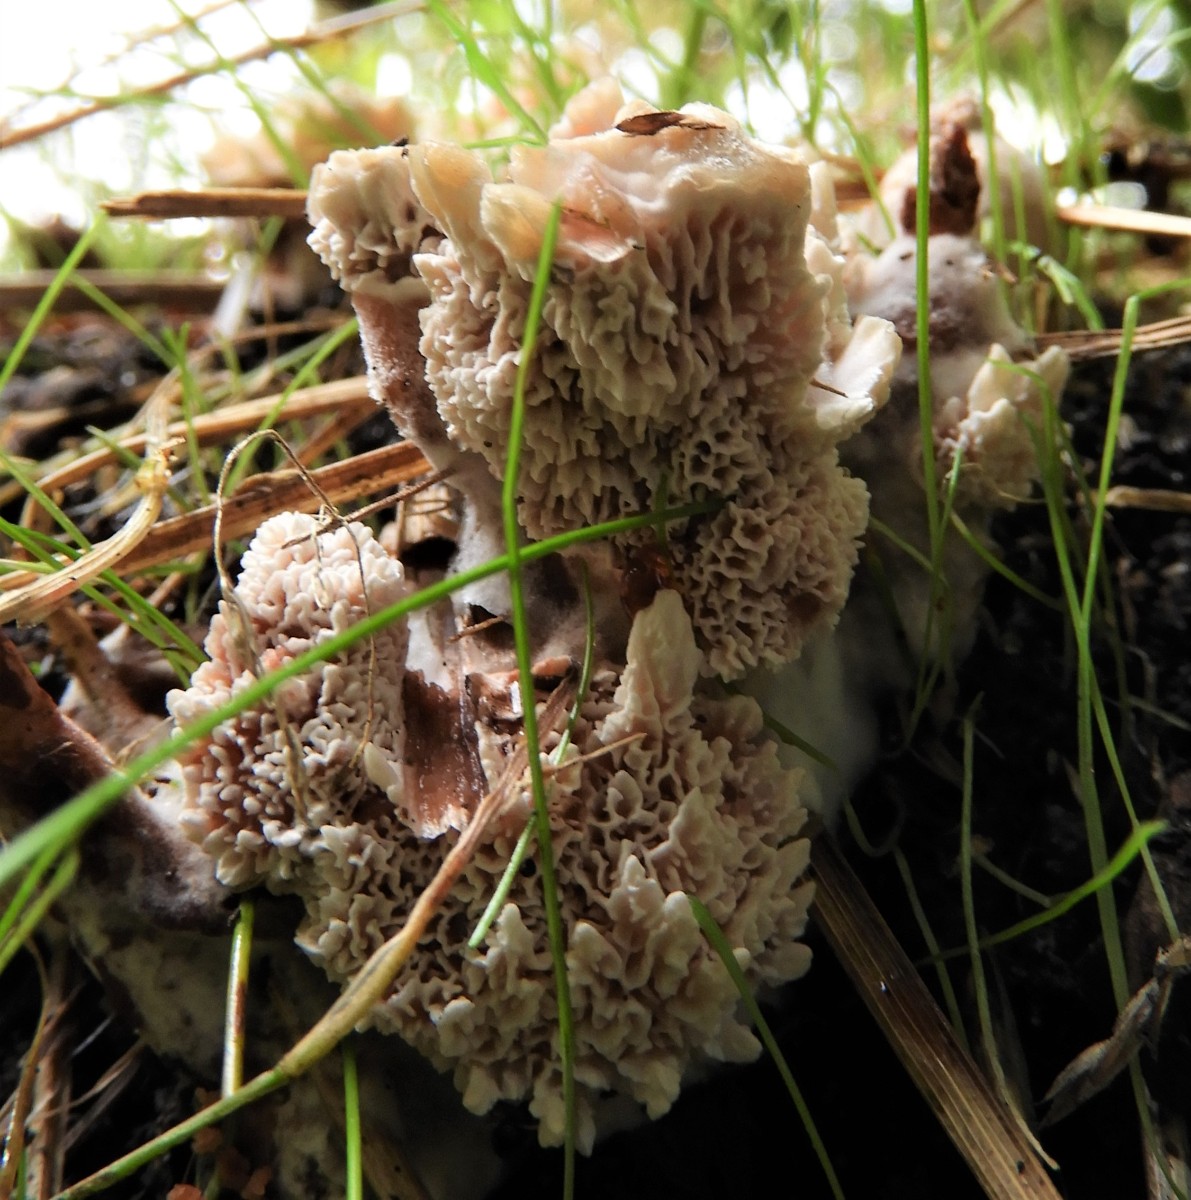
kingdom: Fungi
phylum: Basidiomycota
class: Agaricomycetes
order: Polyporales
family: Podoscyphaceae
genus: Abortiporus
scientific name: Abortiporus biennis
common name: rødmende pjalteporesvamp
